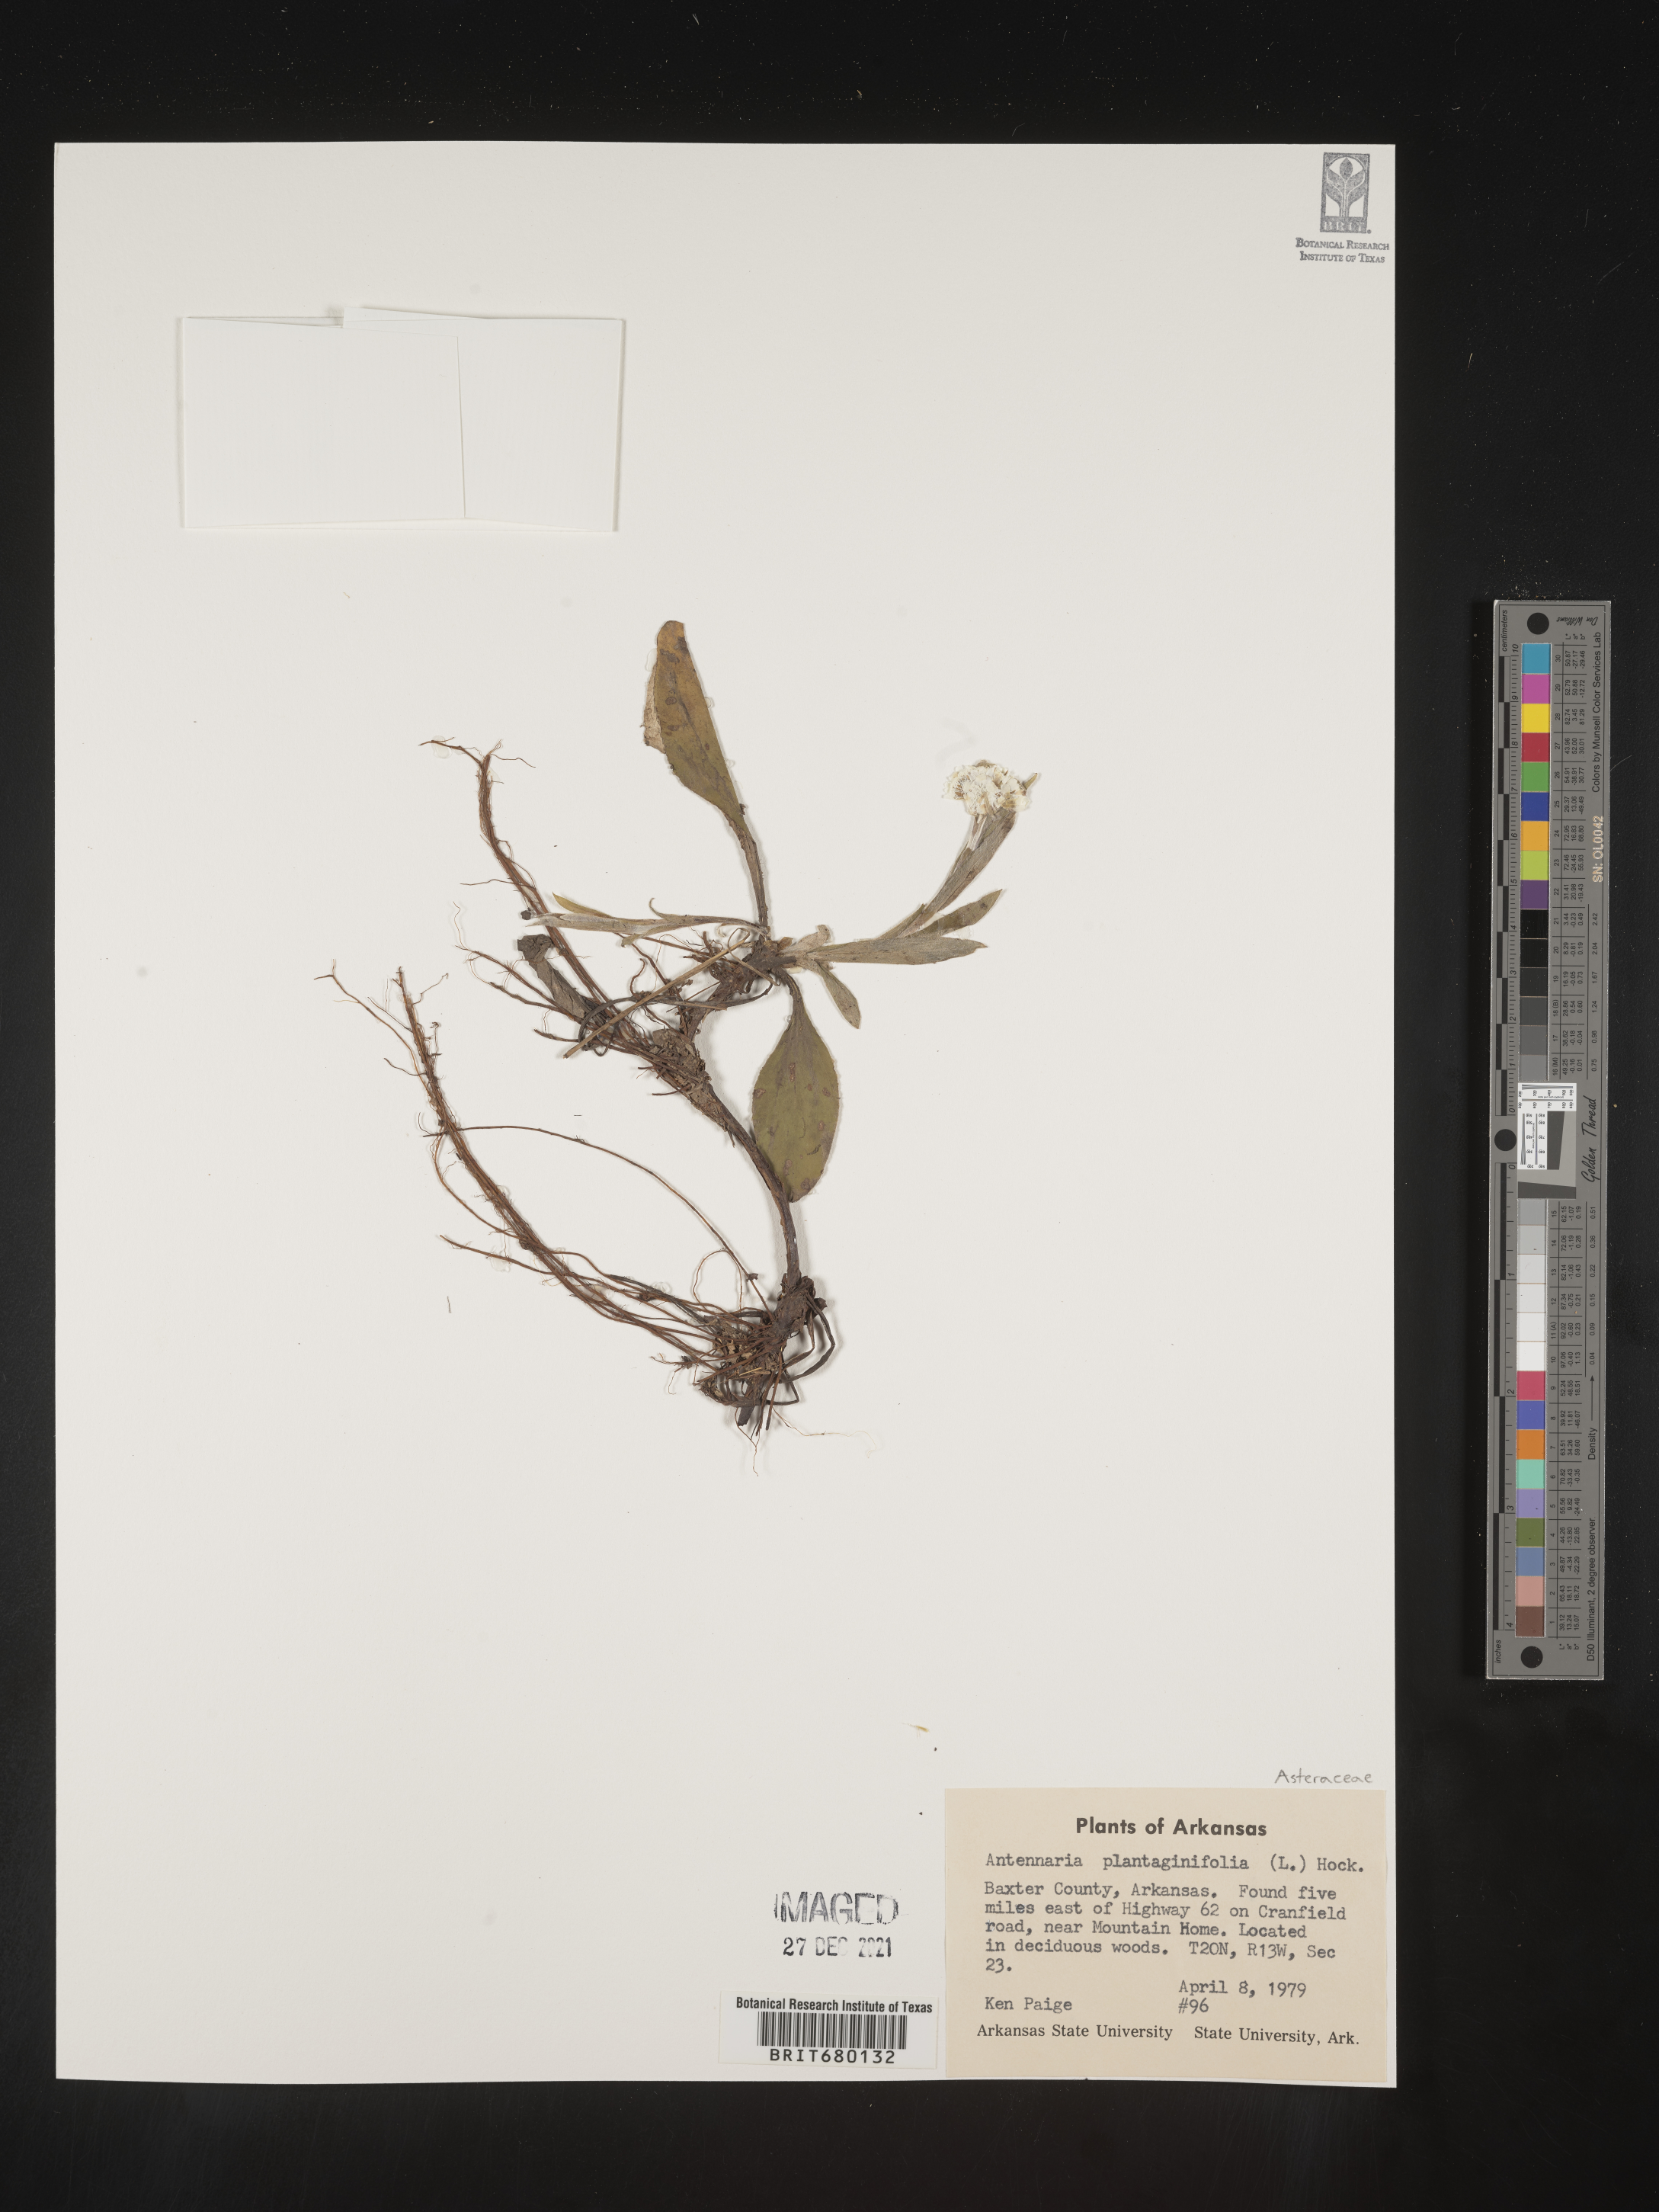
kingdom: Plantae
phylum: Tracheophyta
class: Magnoliopsida
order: Asterales
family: Asteraceae
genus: Antennaria
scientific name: Antennaria plantaginifolia
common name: Plantain-leaved pussytoes
